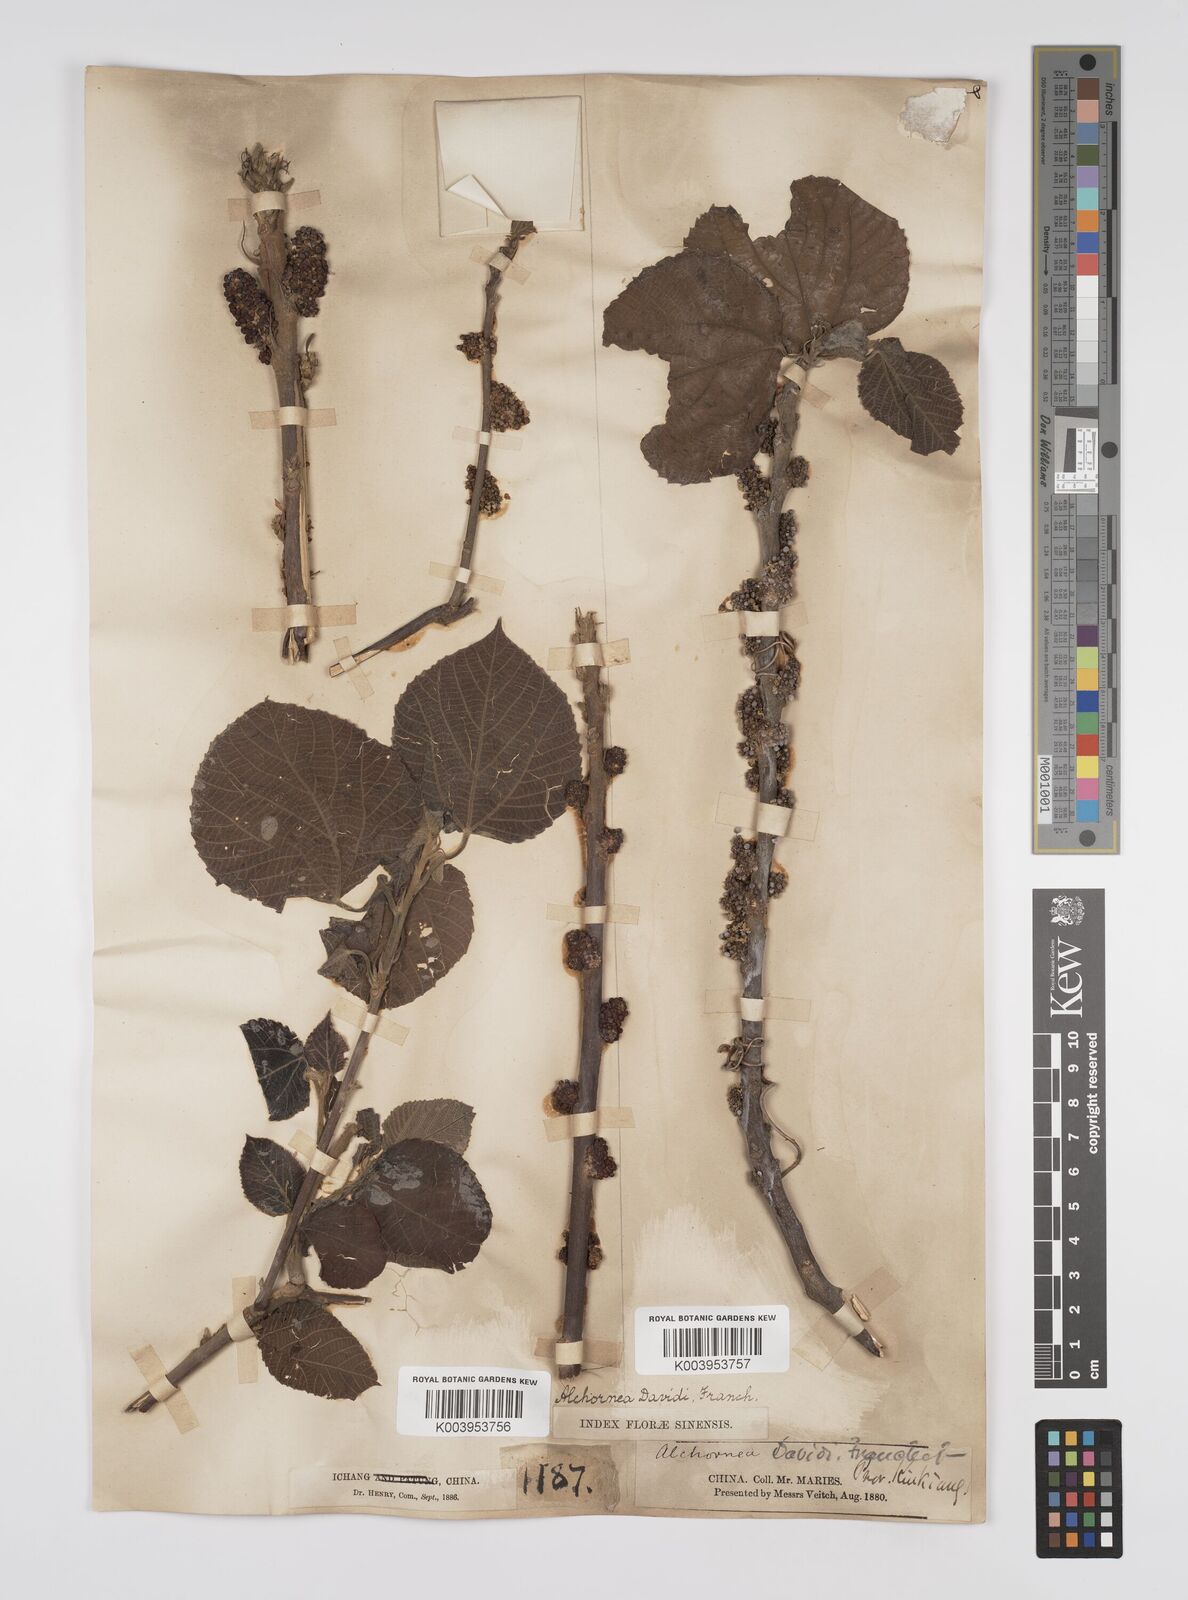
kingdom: Plantae
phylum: Tracheophyta
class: Magnoliopsida
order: Malpighiales
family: Euphorbiaceae
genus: Alchornea
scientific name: Alchornea davidii
